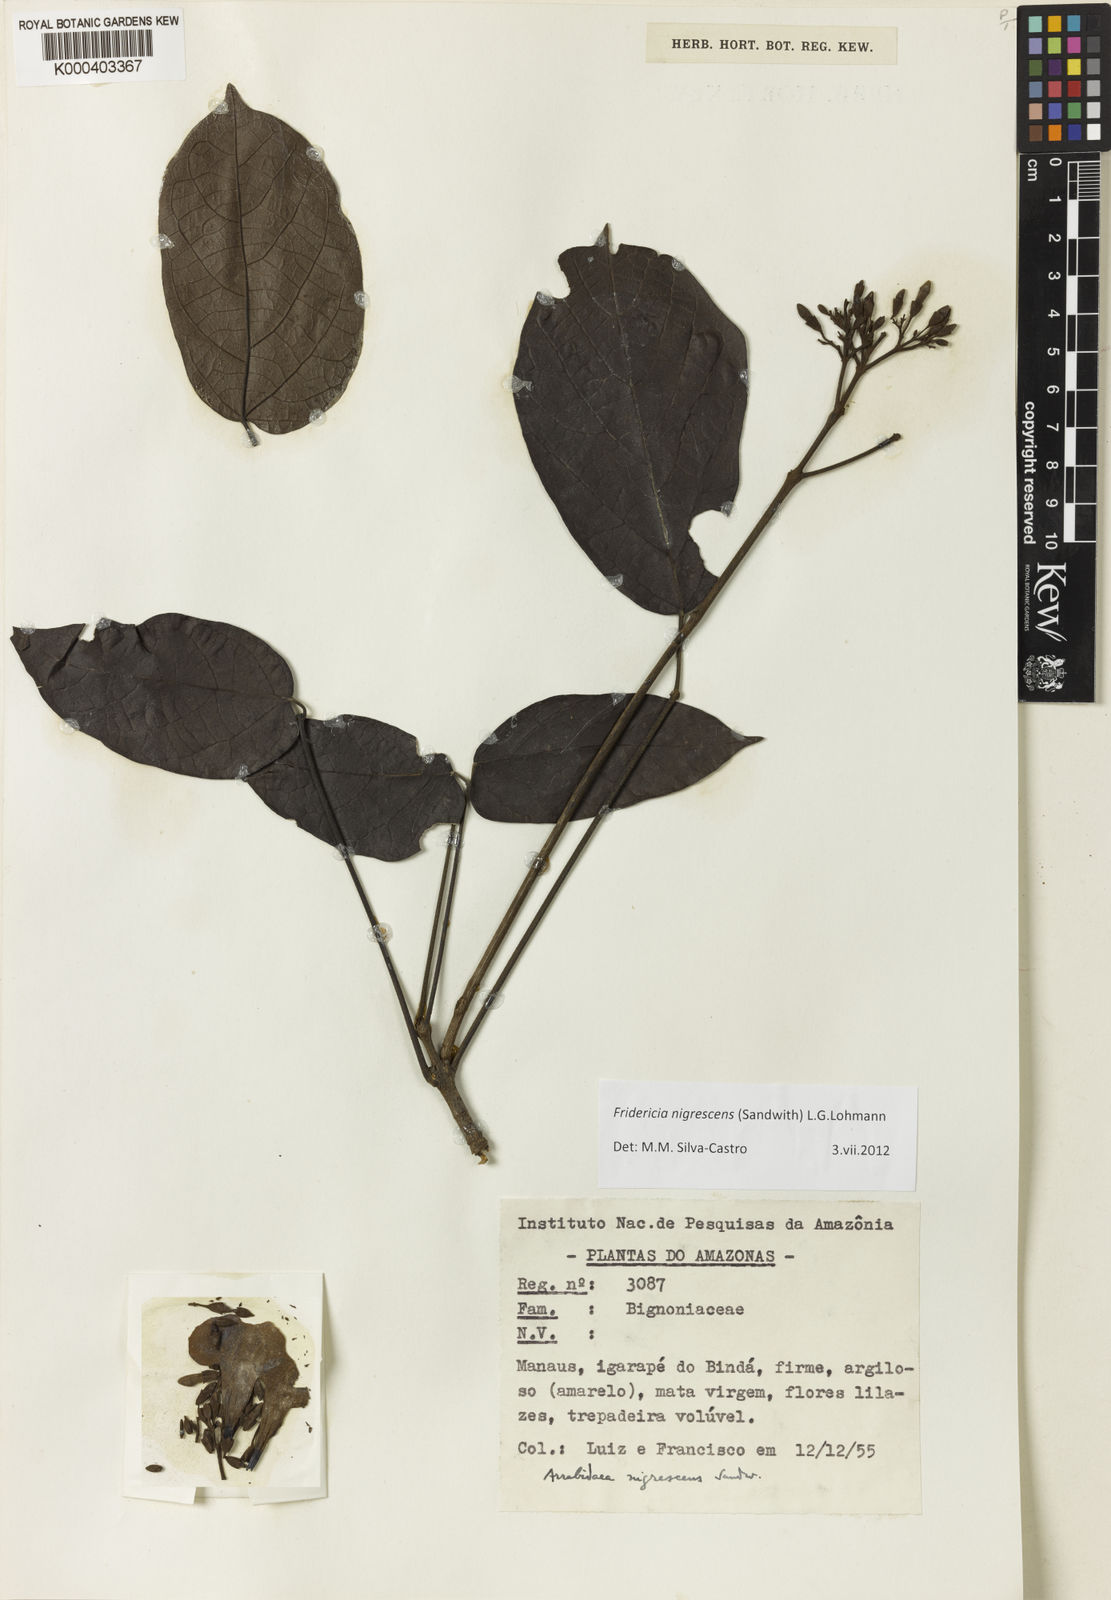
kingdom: Plantae
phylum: Tracheophyta
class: Magnoliopsida
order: Lamiales
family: Bignoniaceae
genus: Fridericia
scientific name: Fridericia nigrescens
